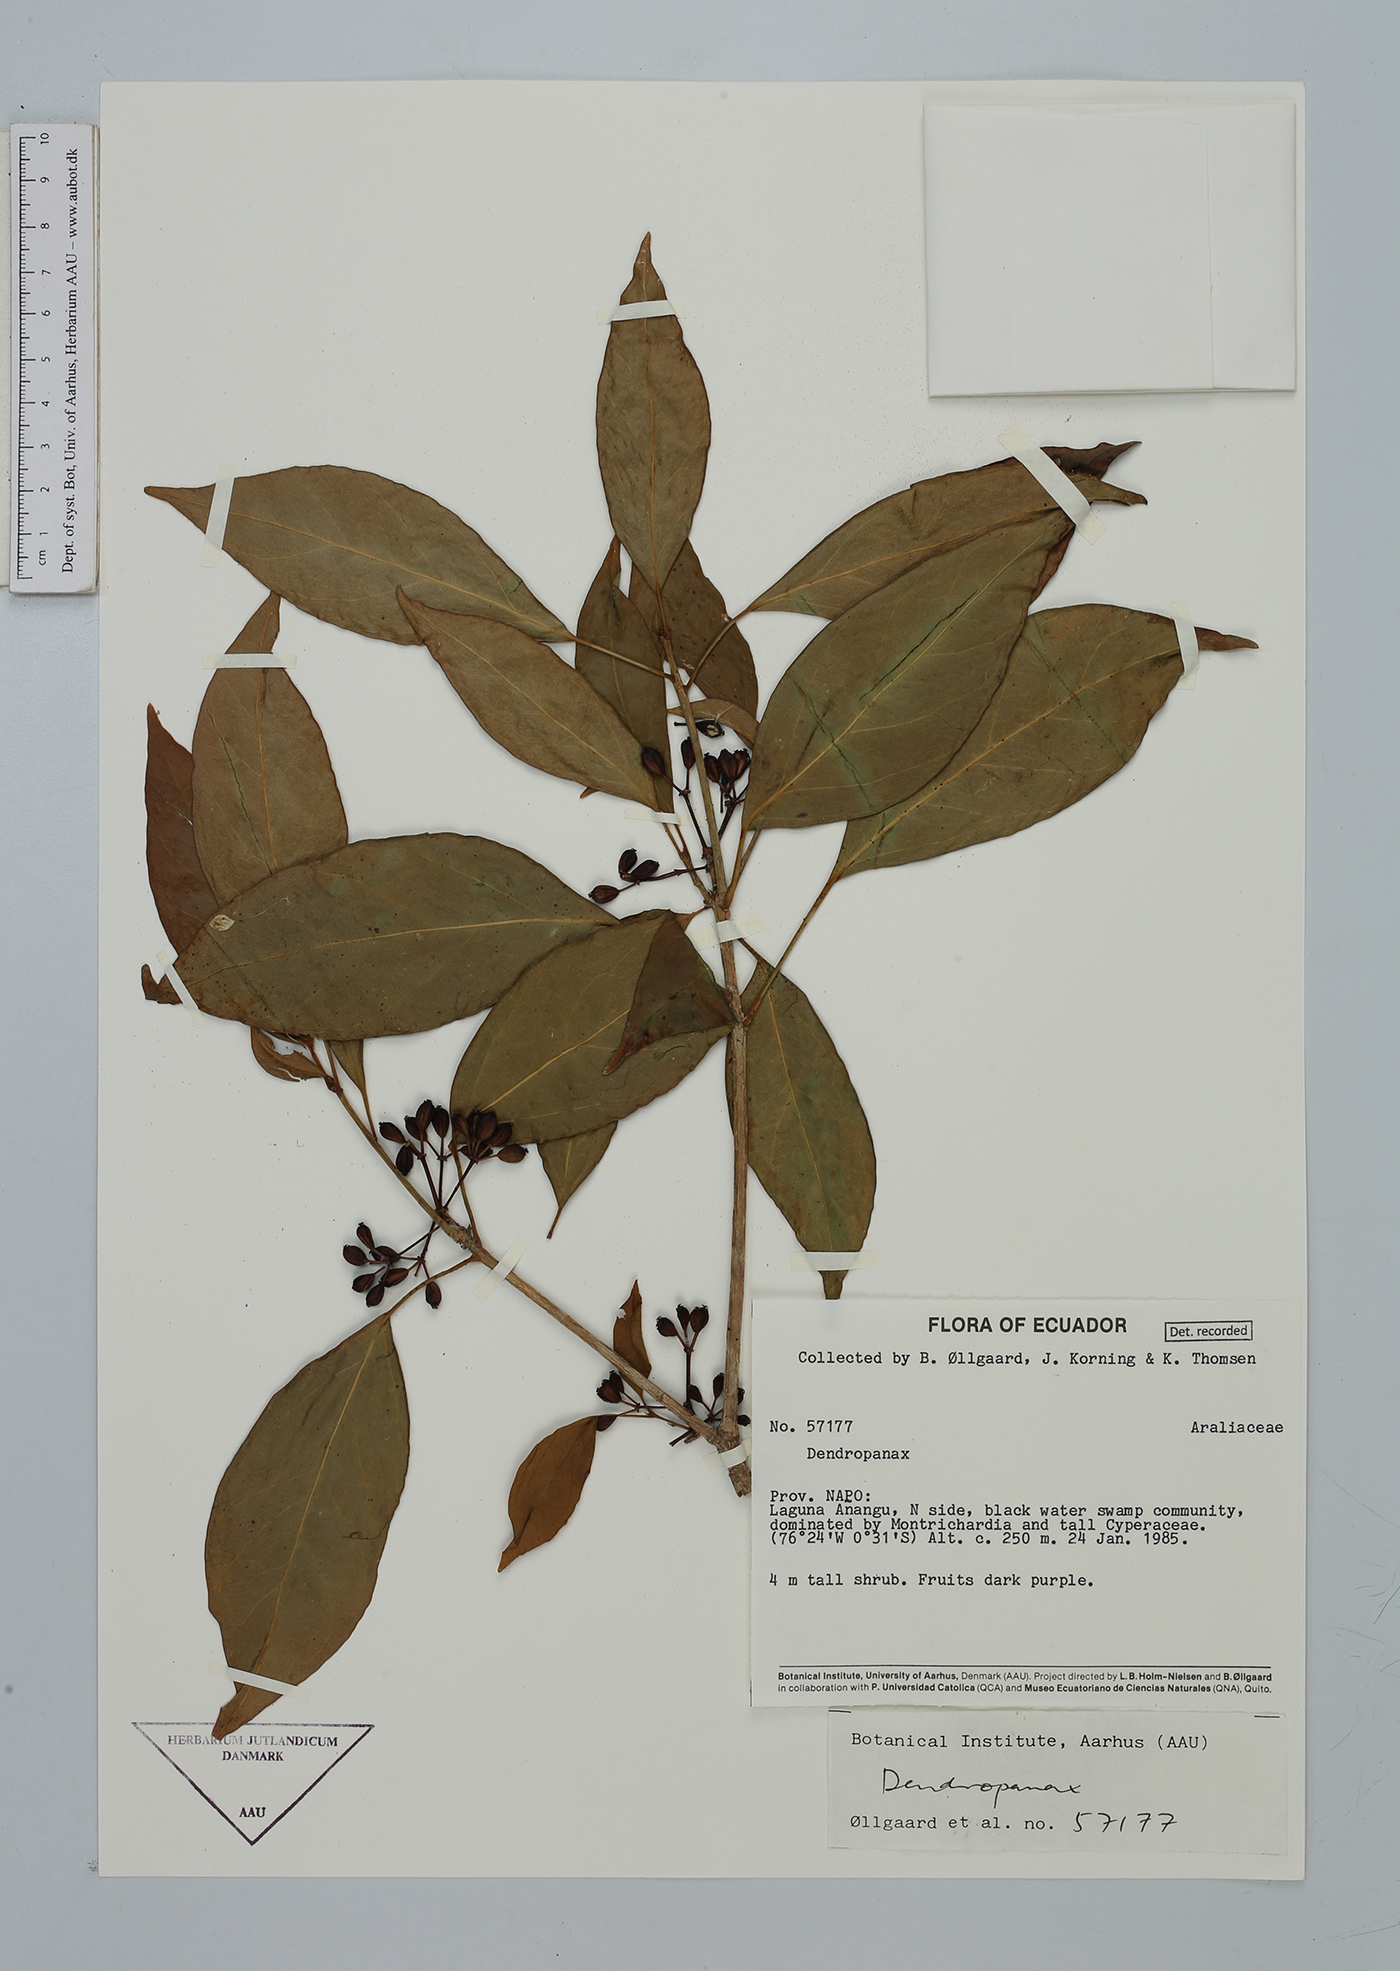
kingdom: Plantae
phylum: Tracheophyta
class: Magnoliopsida
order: Apiales
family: Araliaceae
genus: Dendropanax
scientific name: Dendropanax
